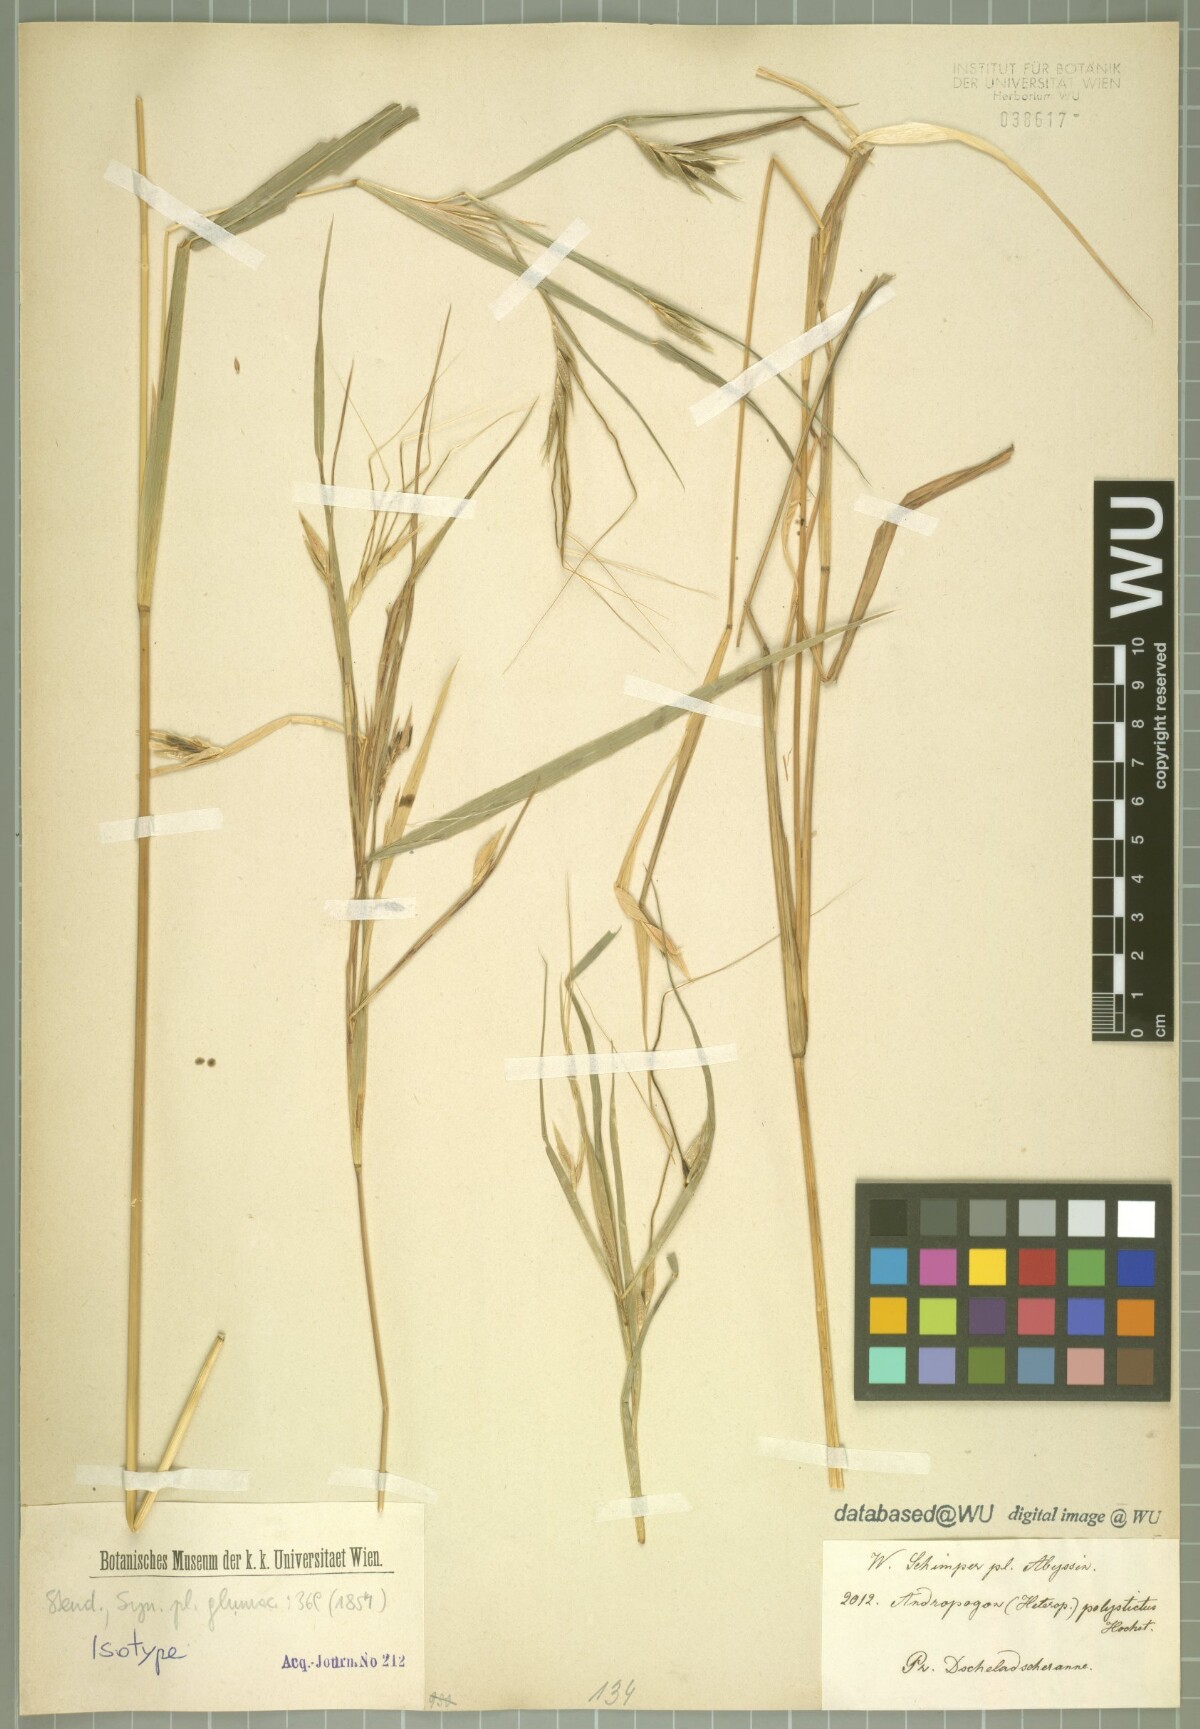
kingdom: Plantae
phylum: Tracheophyta
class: Liliopsida
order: Poales
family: Poaceae
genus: Andropogon
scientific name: Andropogon polystichus
